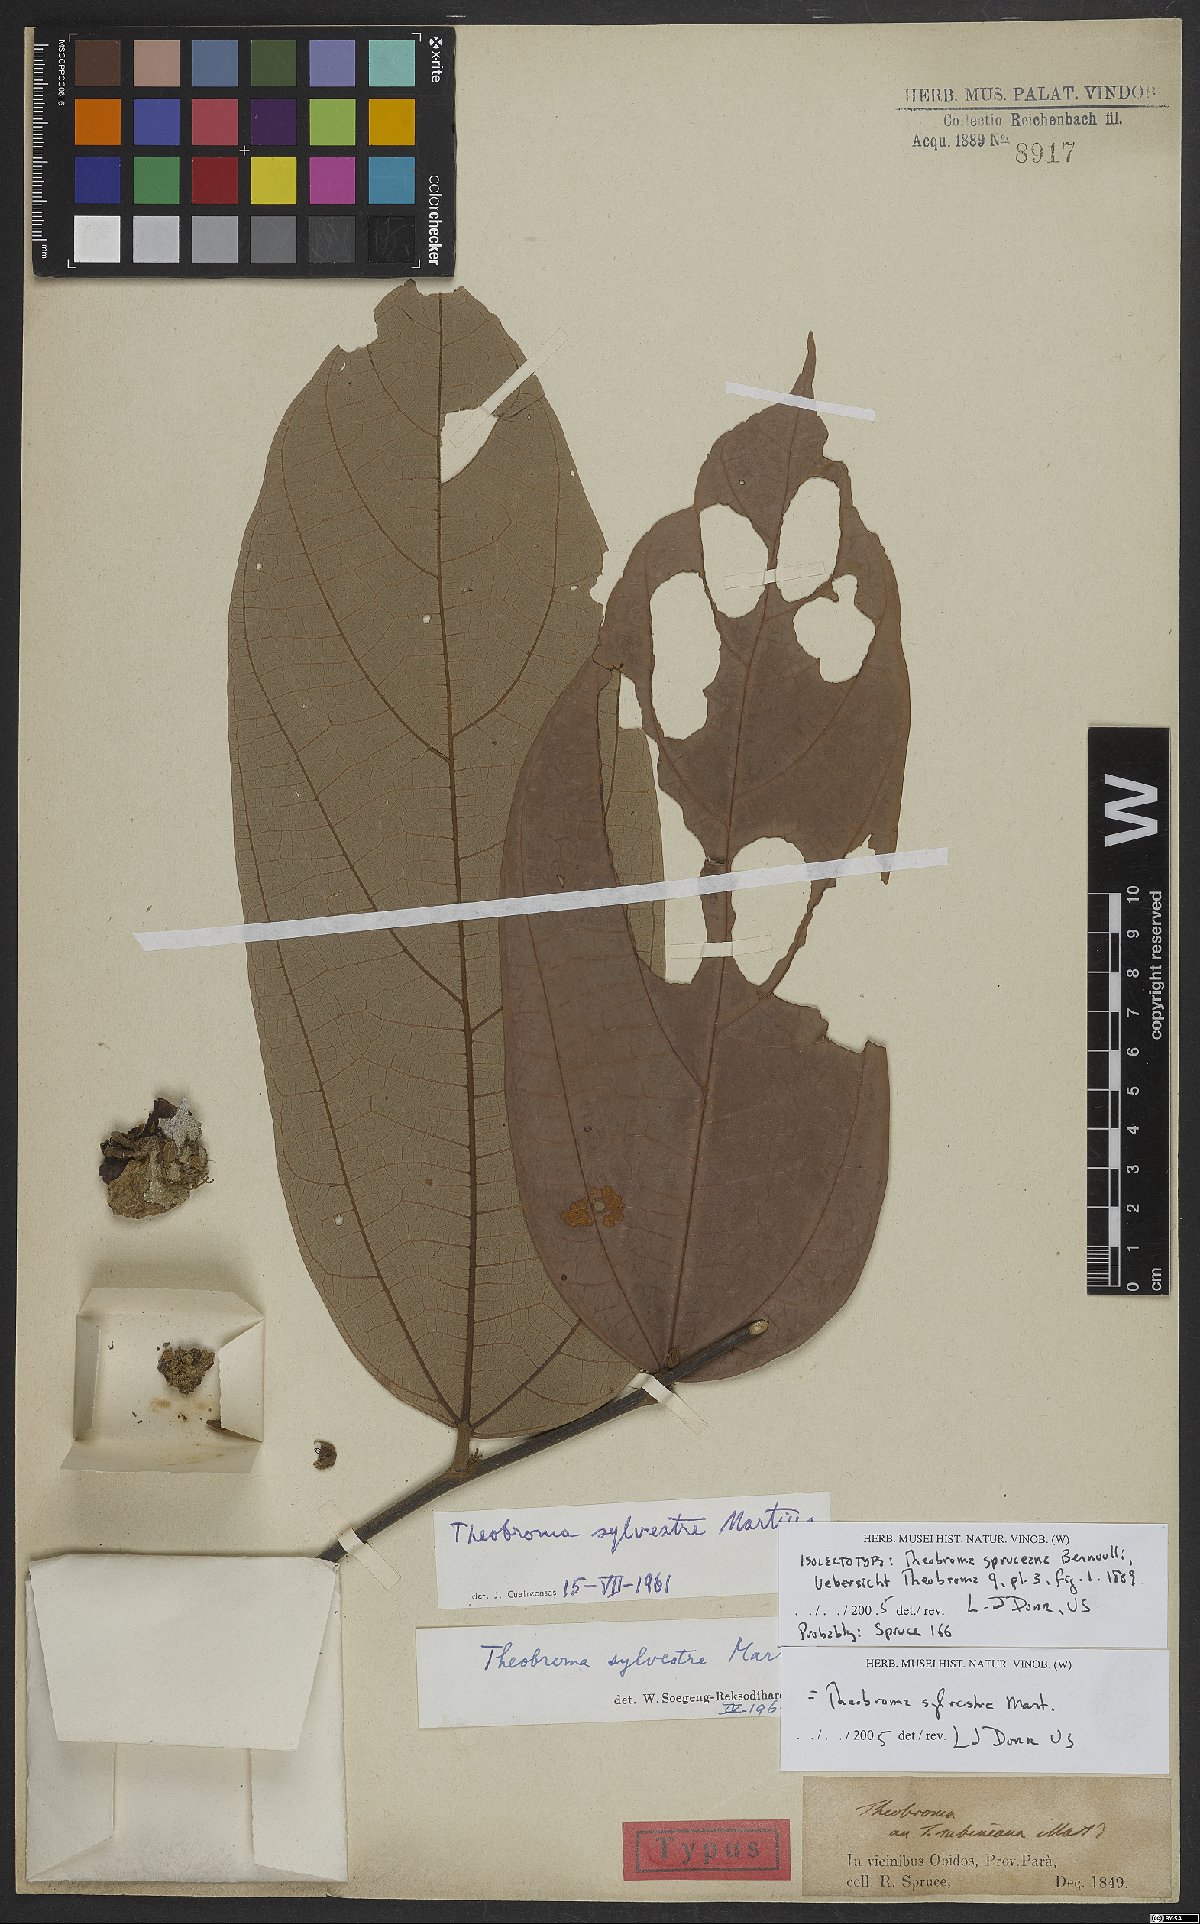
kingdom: Plantae
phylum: Tracheophyta
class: Magnoliopsida
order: Malvales
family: Malvaceae
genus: Theobroma
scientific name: Theobroma sylvestre
